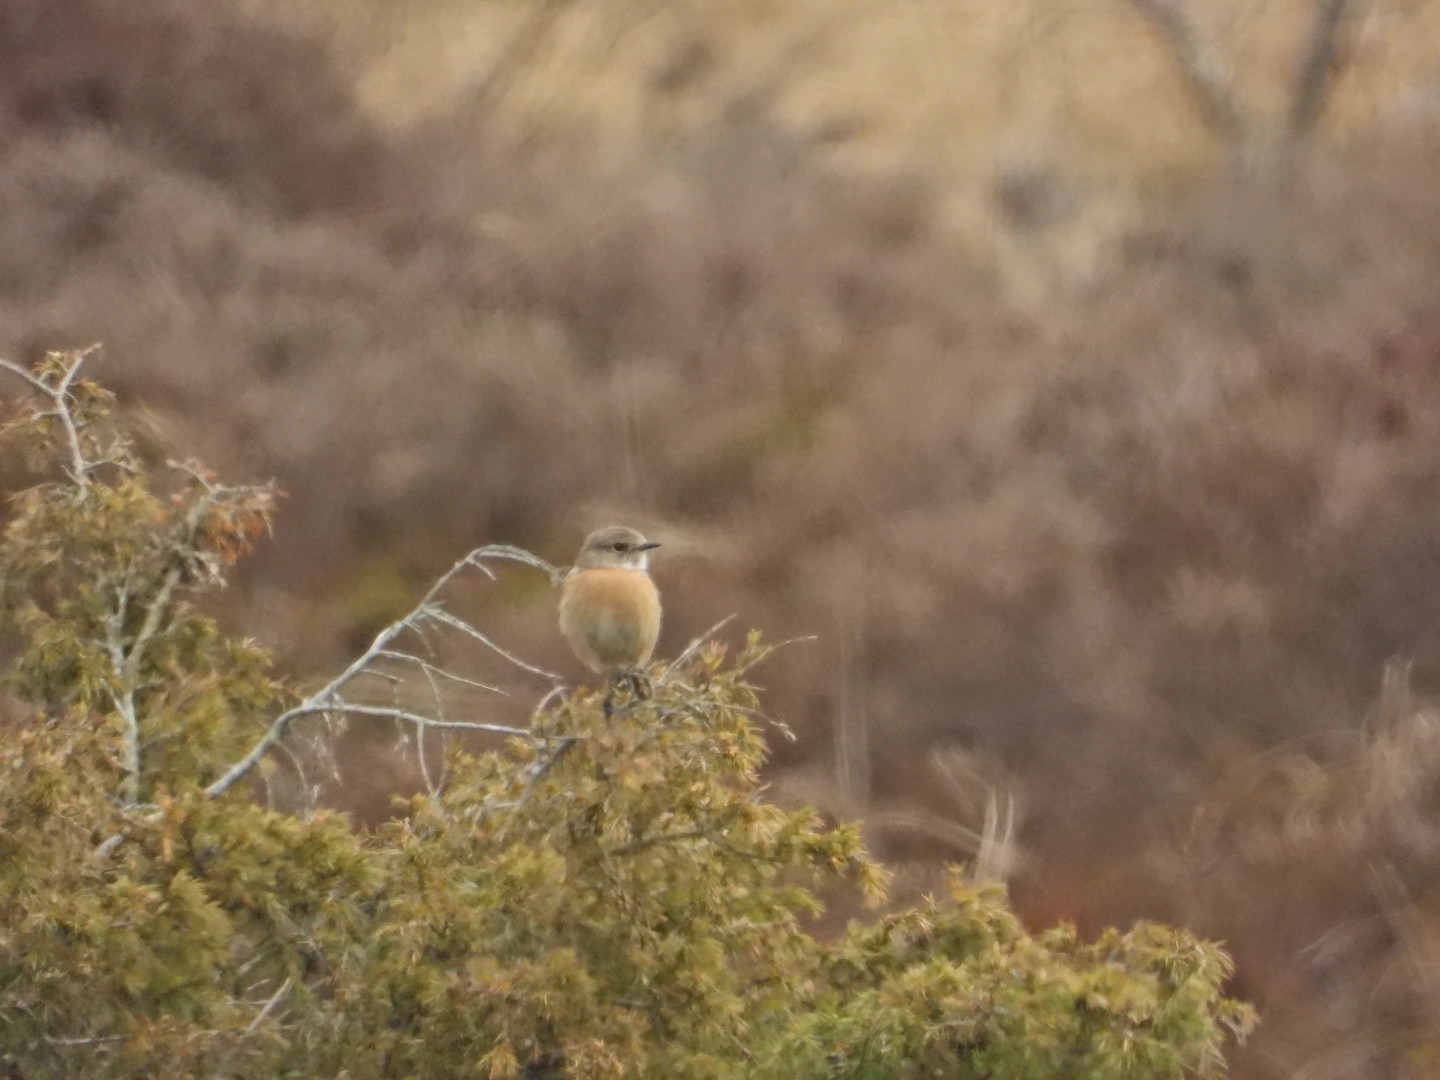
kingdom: Animalia
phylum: Chordata
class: Aves
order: Passeriformes
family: Muscicapidae
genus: Saxicola
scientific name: Saxicola rubicola
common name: Sortstrubet bynkefugl
